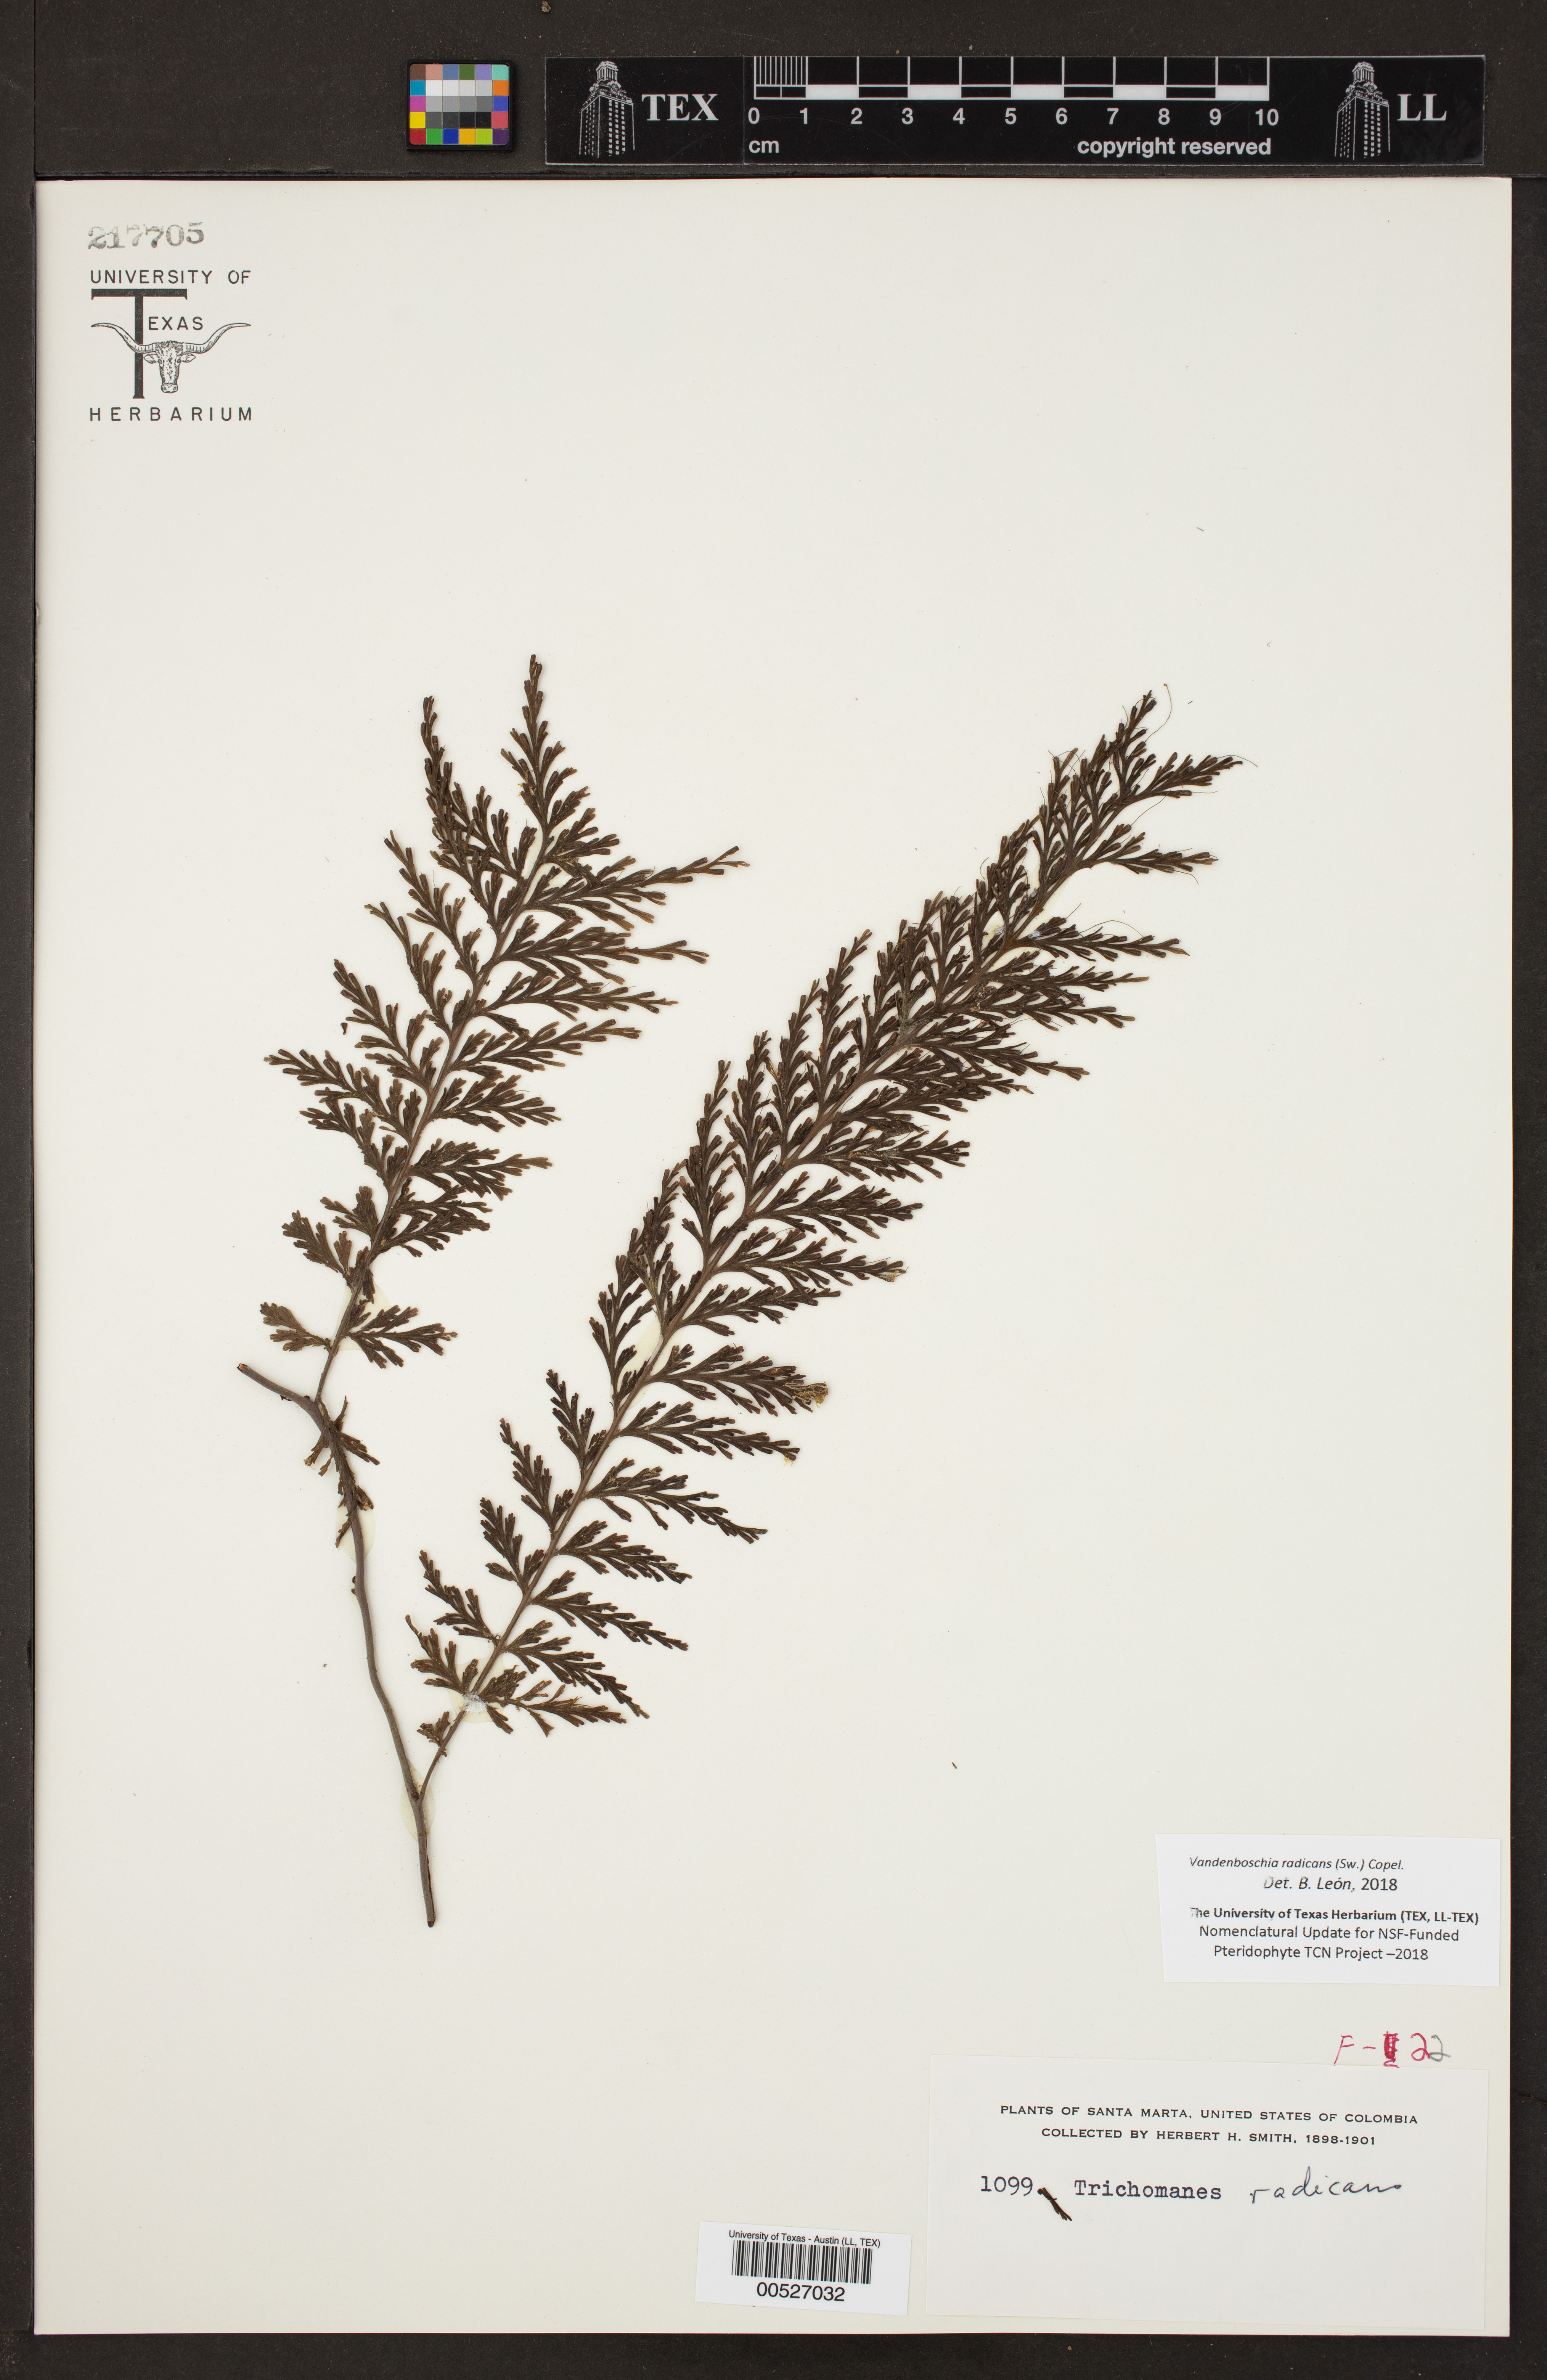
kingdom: Plantae
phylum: Tracheophyta
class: Polypodiopsida
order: Hymenophyllales
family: Hymenophyllaceae
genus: Vandenboschia
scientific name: Vandenboschia radicans
